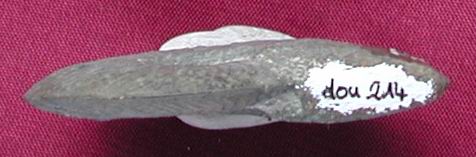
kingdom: Animalia
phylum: Mollusca
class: Cephalopoda
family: Hildoceratidae
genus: Pleydellia
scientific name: Pleydellia
